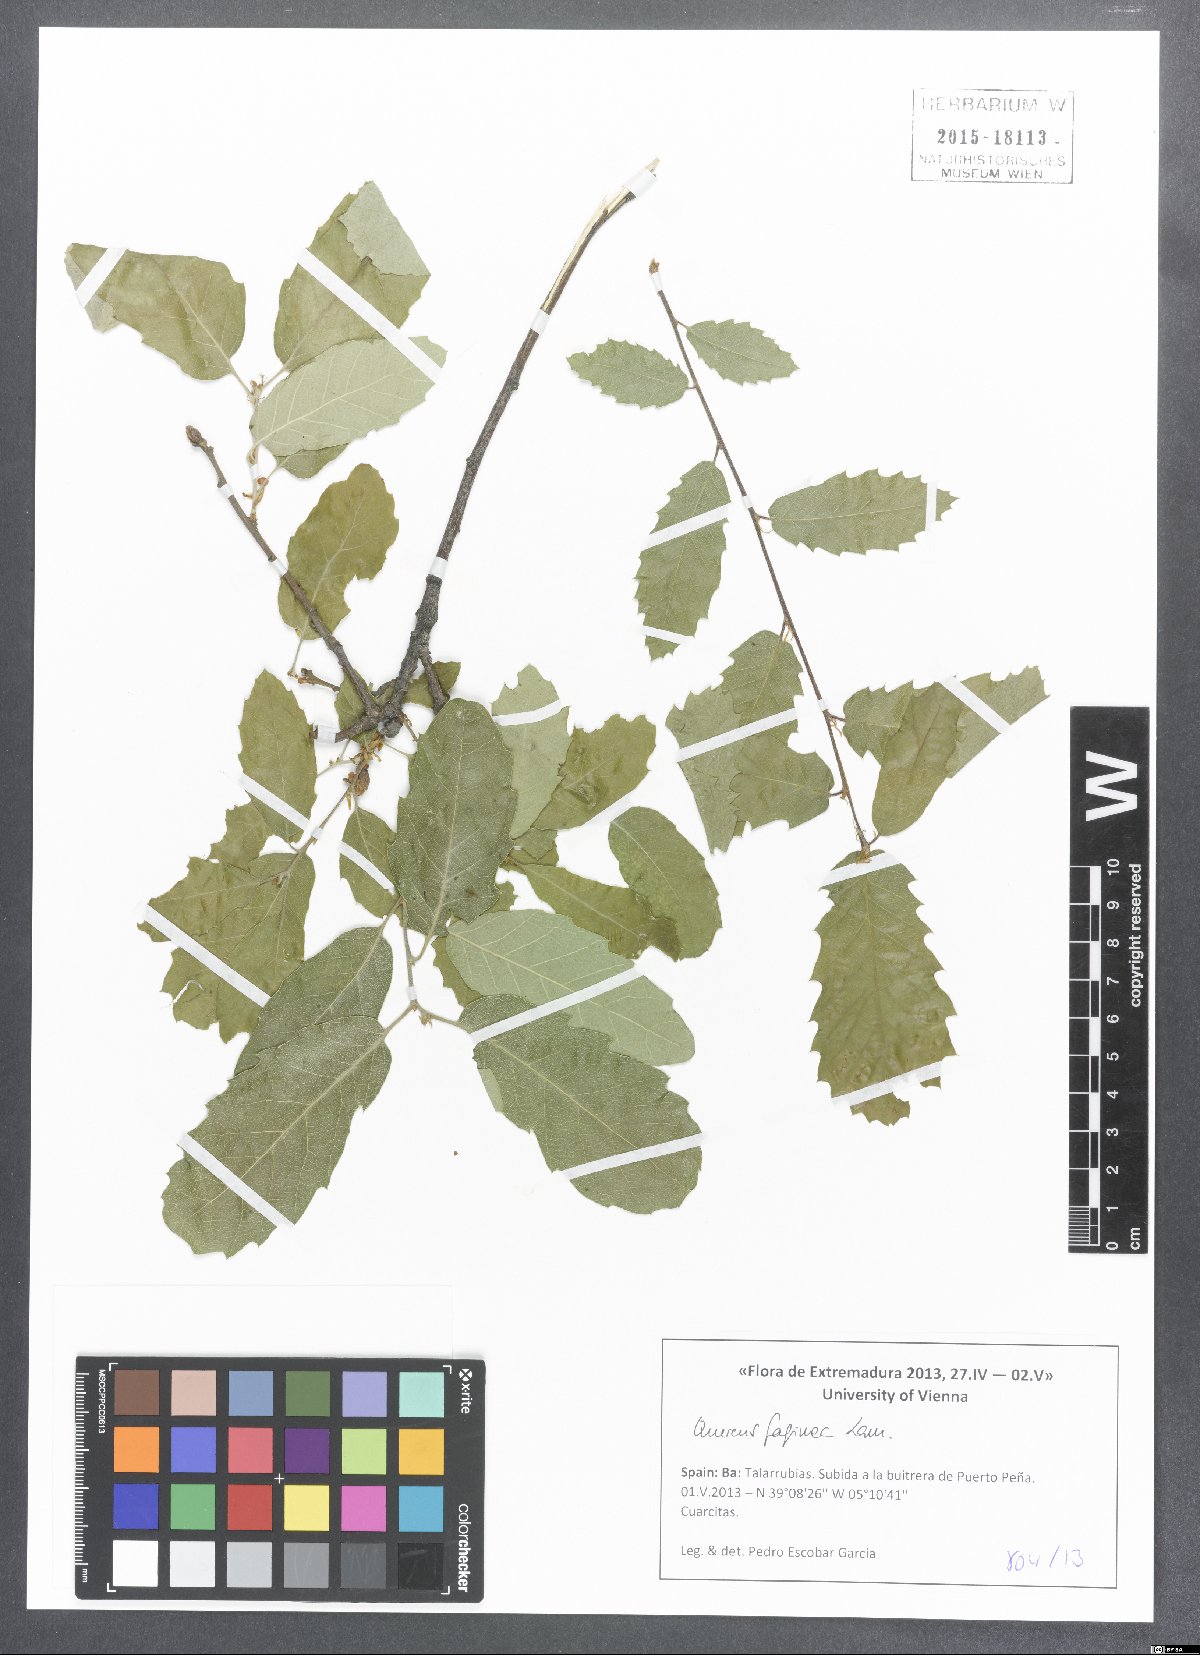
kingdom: Plantae
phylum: Tracheophyta
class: Magnoliopsida
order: Fagales
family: Fagaceae
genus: Quercus
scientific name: Quercus faginea
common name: Gall oak tree
